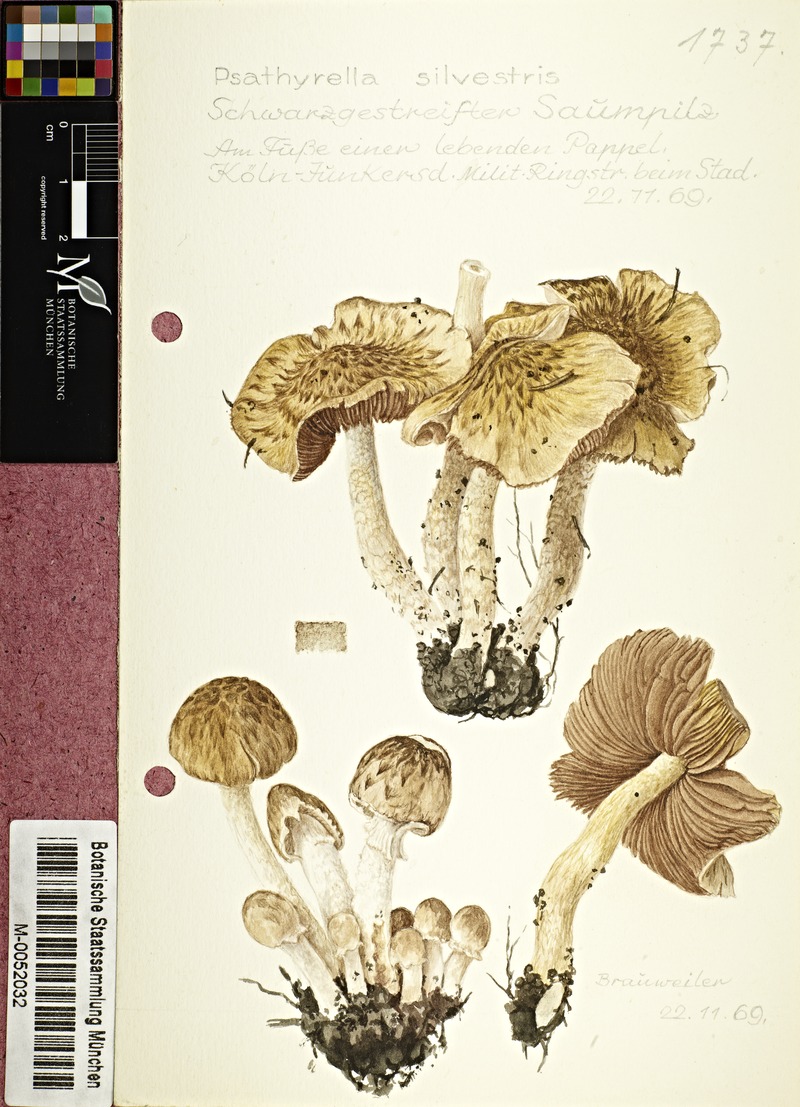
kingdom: Fungi
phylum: Basidiomycota
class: Agaricomycetes
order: Agaricales
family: Psathyrellaceae
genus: Cystoagaricus
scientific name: Cystoagaricus sylvestris
